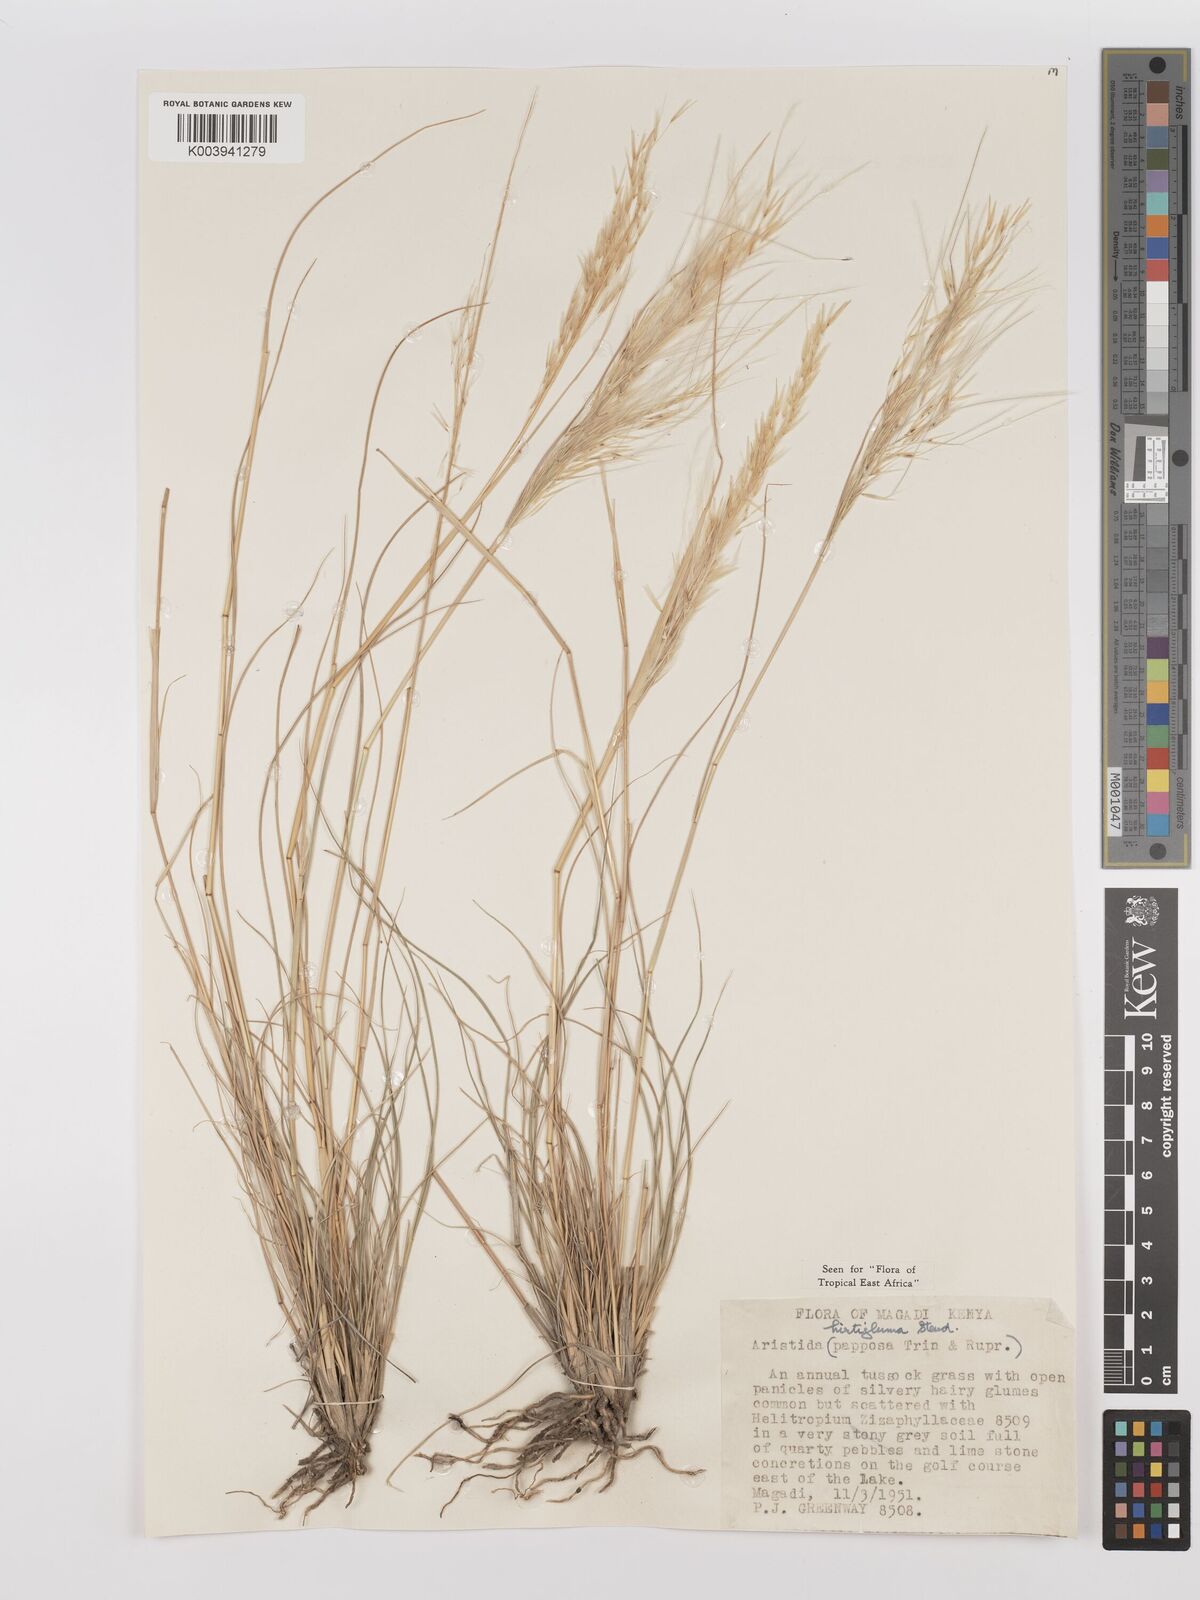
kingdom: Plantae
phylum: Tracheophyta
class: Liliopsida
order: Poales
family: Poaceae
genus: Stipagrostis
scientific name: Stipagrostis hirtigluma
